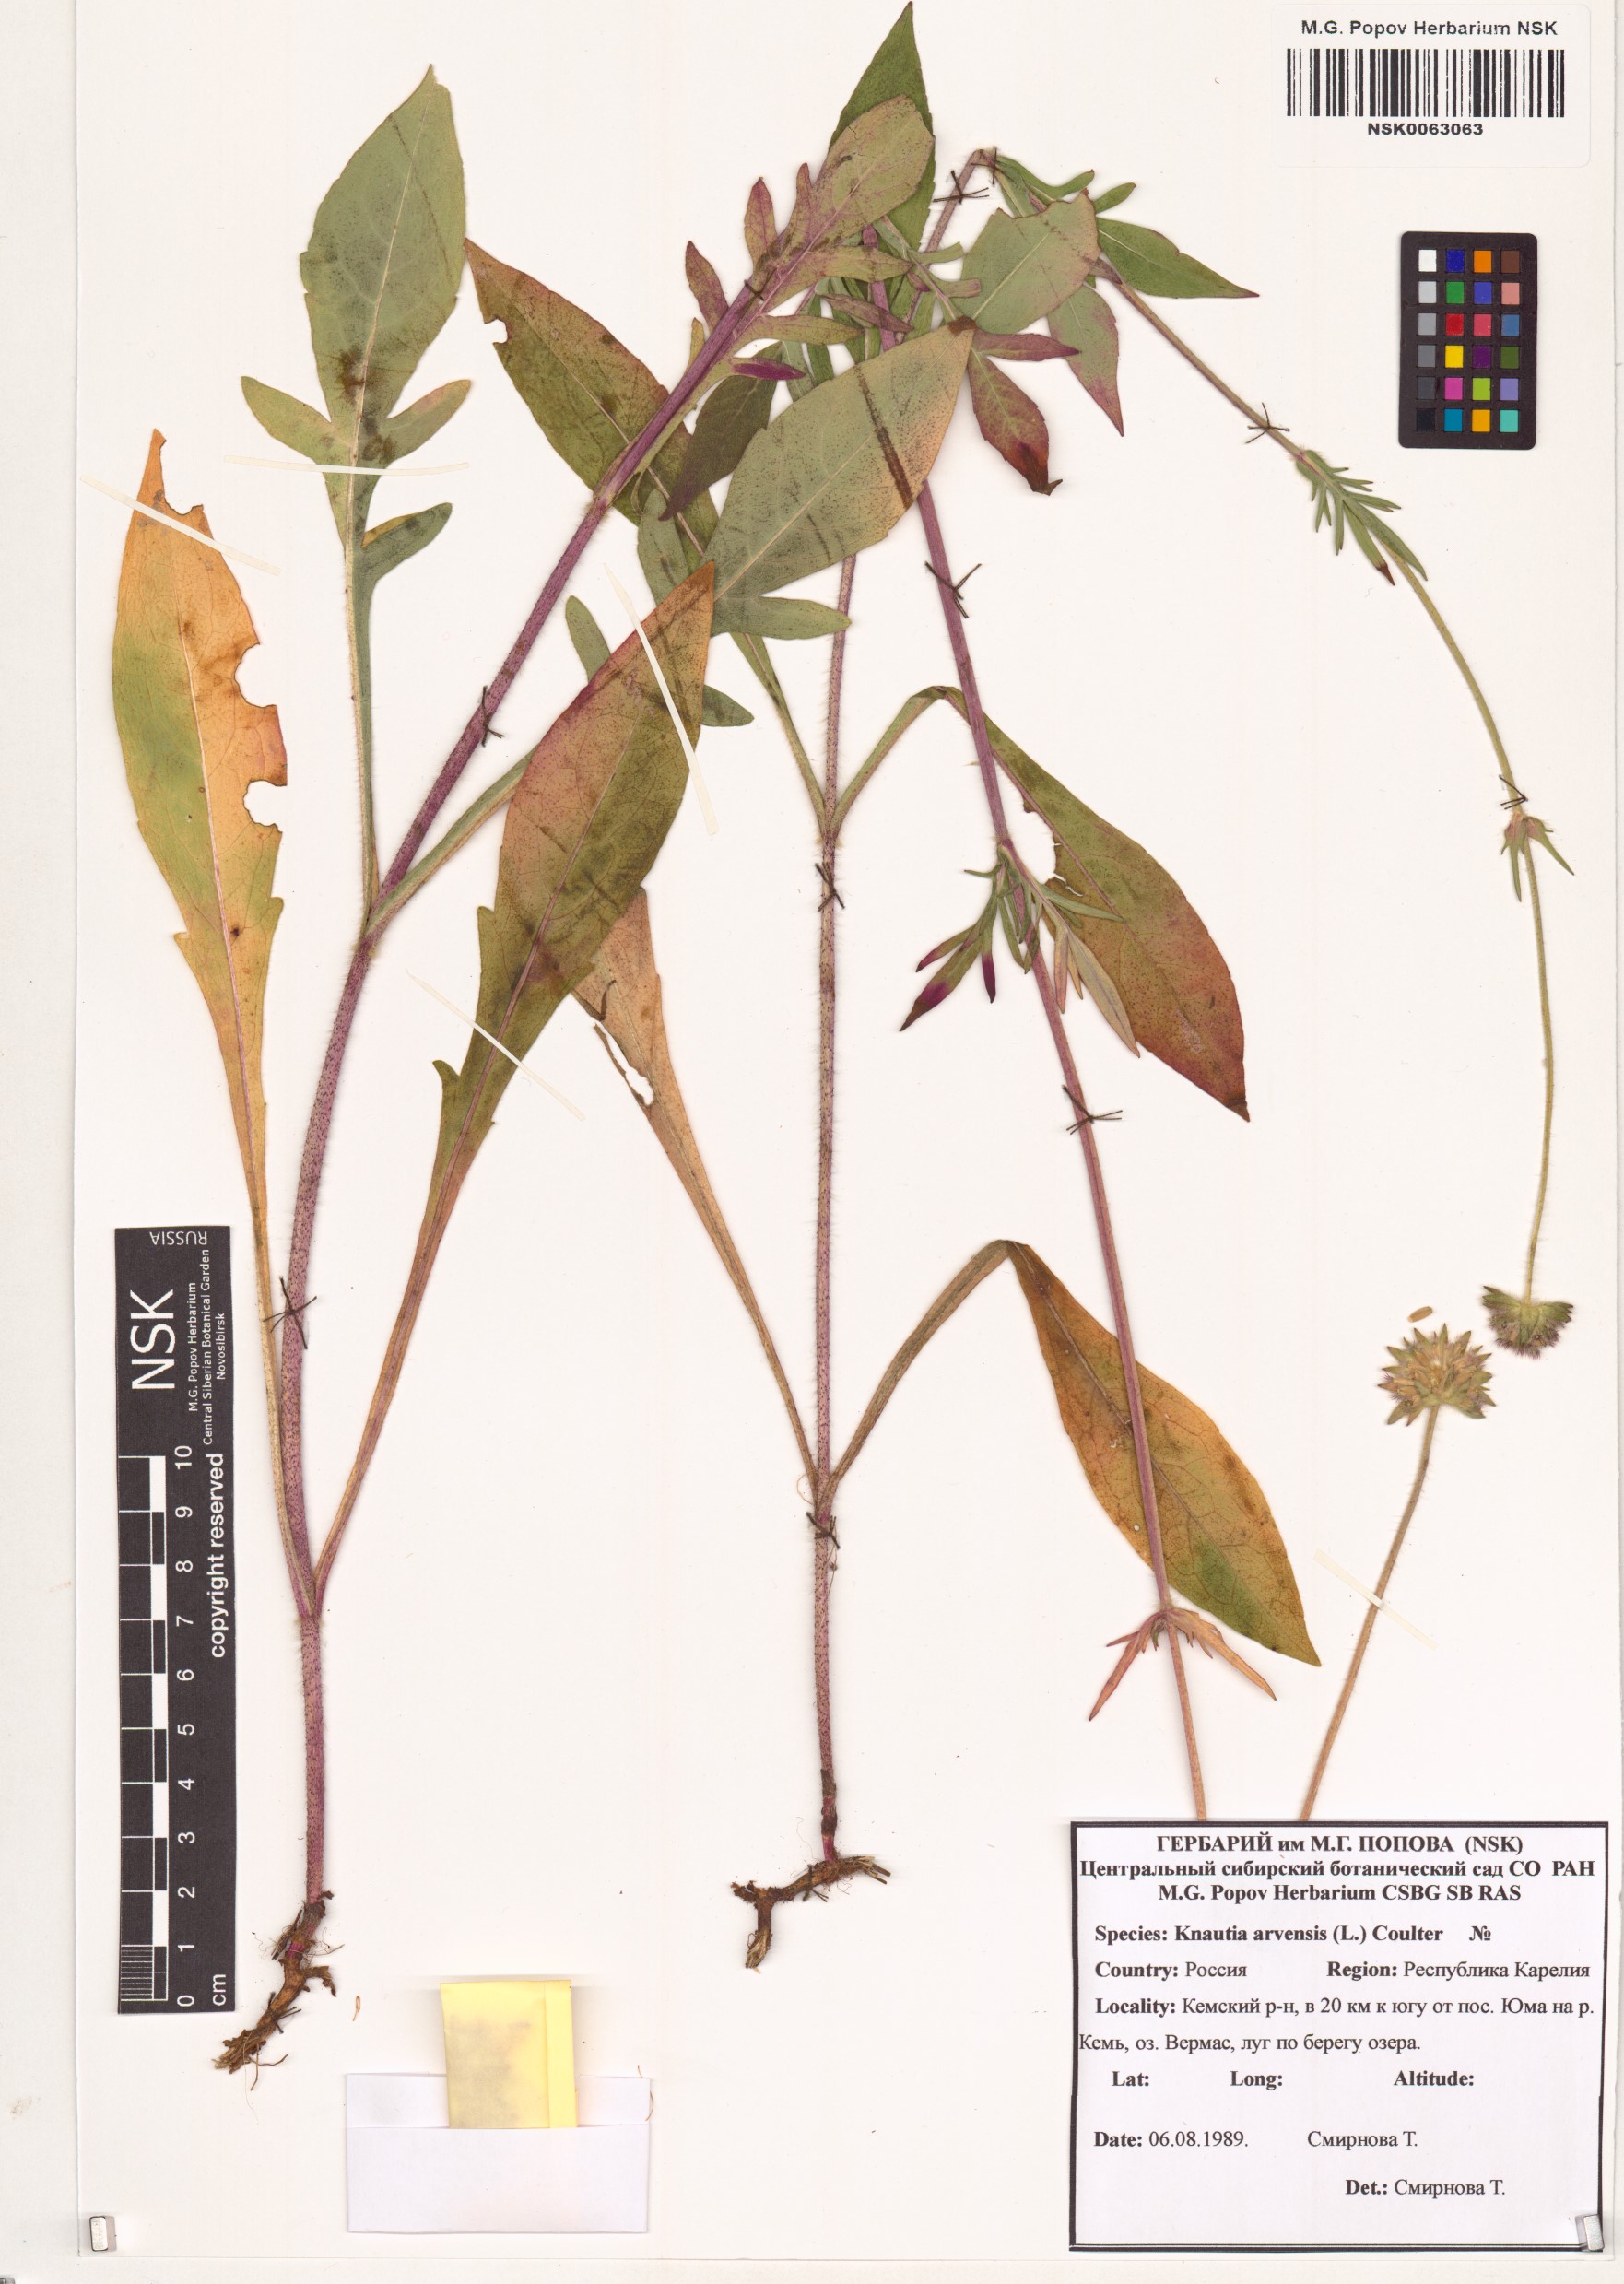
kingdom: Plantae
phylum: Tracheophyta
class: Magnoliopsida
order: Dipsacales
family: Caprifoliaceae
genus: Knautia
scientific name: Knautia arvensis
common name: Field scabiosa
